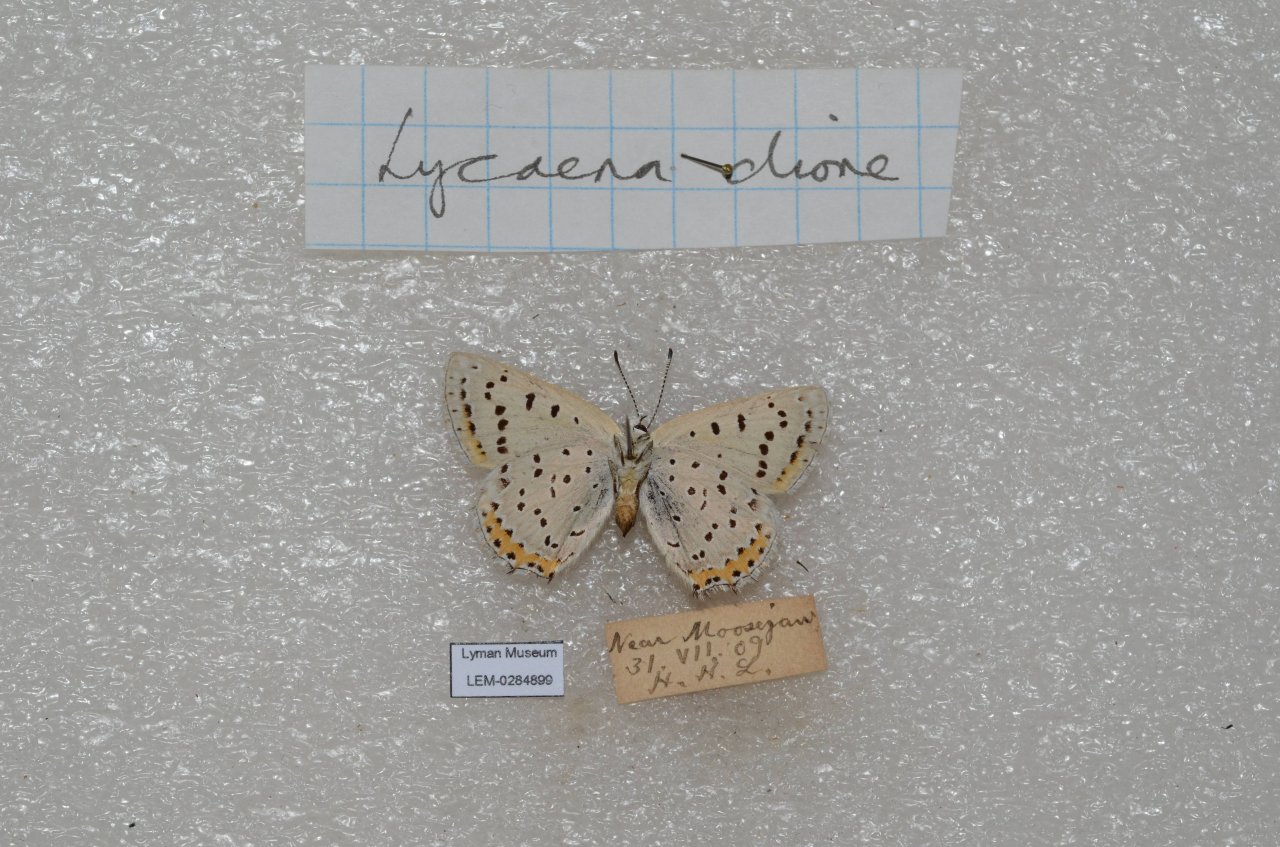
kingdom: Animalia
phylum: Arthropoda
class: Insecta
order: Lepidoptera
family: Lycaenidae
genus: Nacaduba
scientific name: Nacaduba dyopa
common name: Gray Copper
